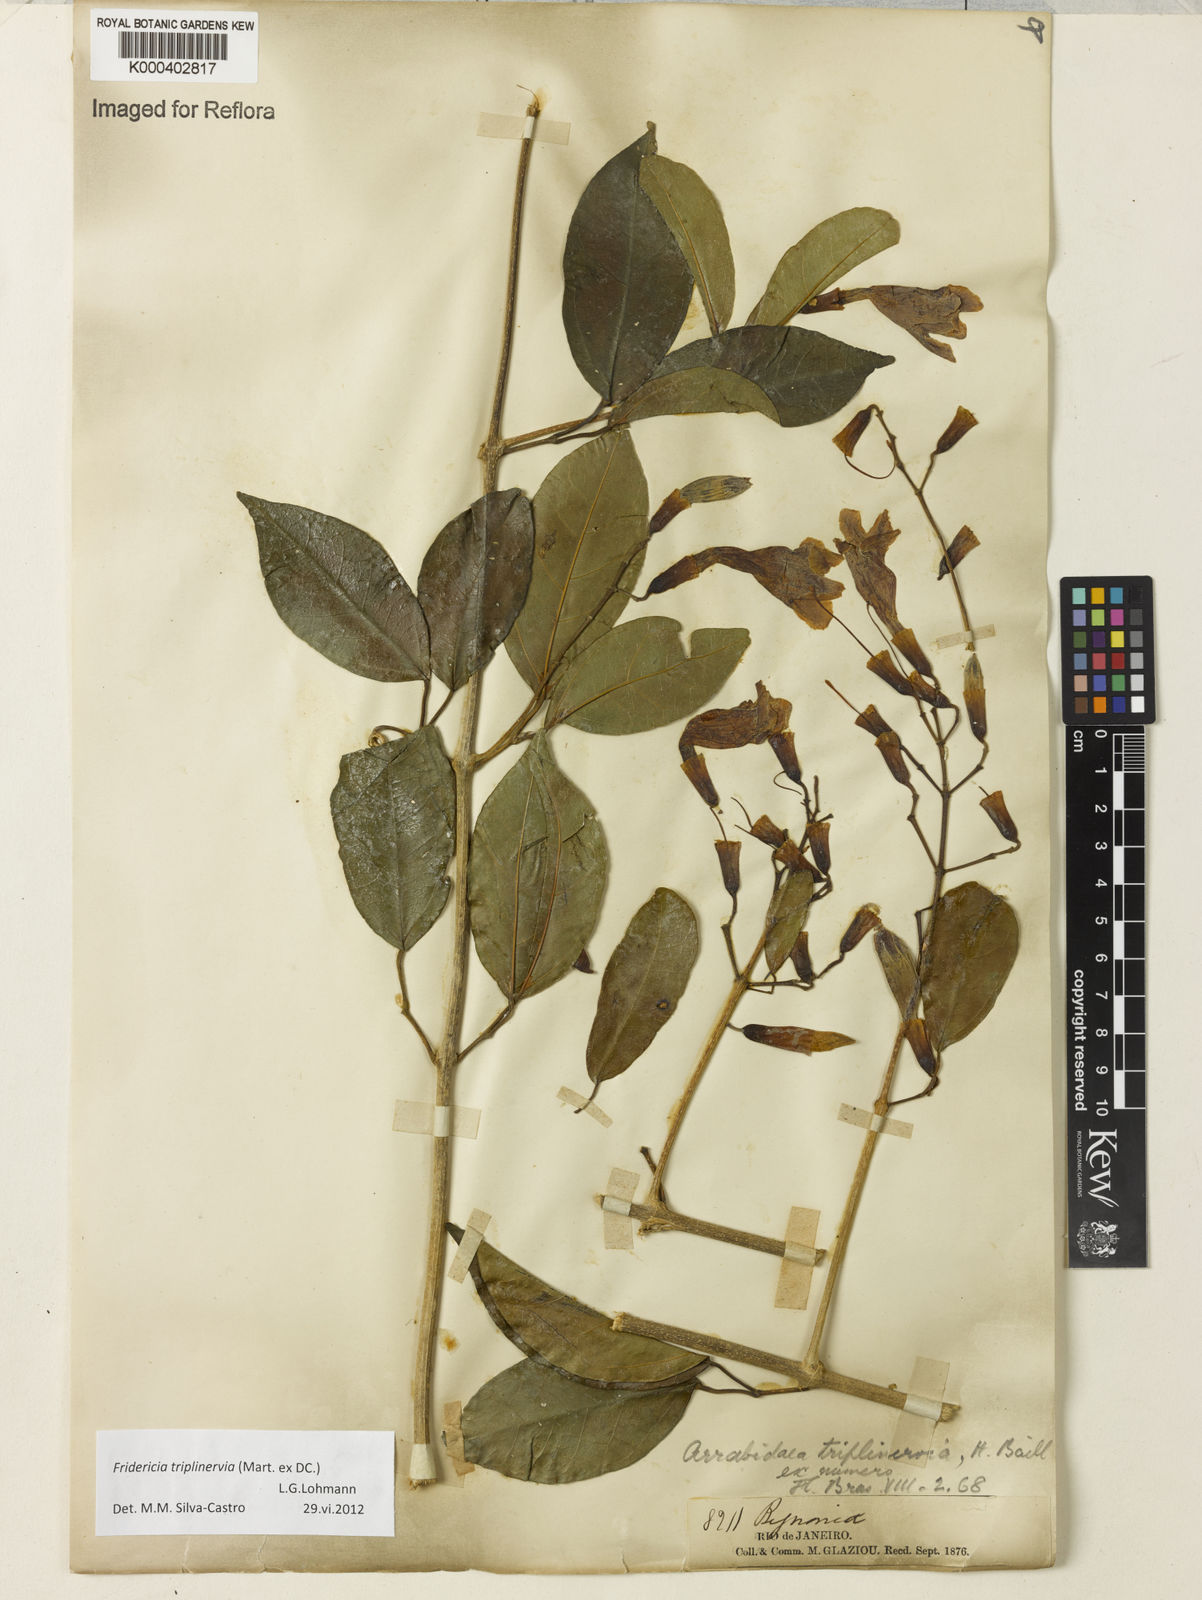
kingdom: Plantae
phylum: Tracheophyta
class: Magnoliopsida
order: Lamiales
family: Bignoniaceae
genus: Fridericia
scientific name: Fridericia triplinervia
